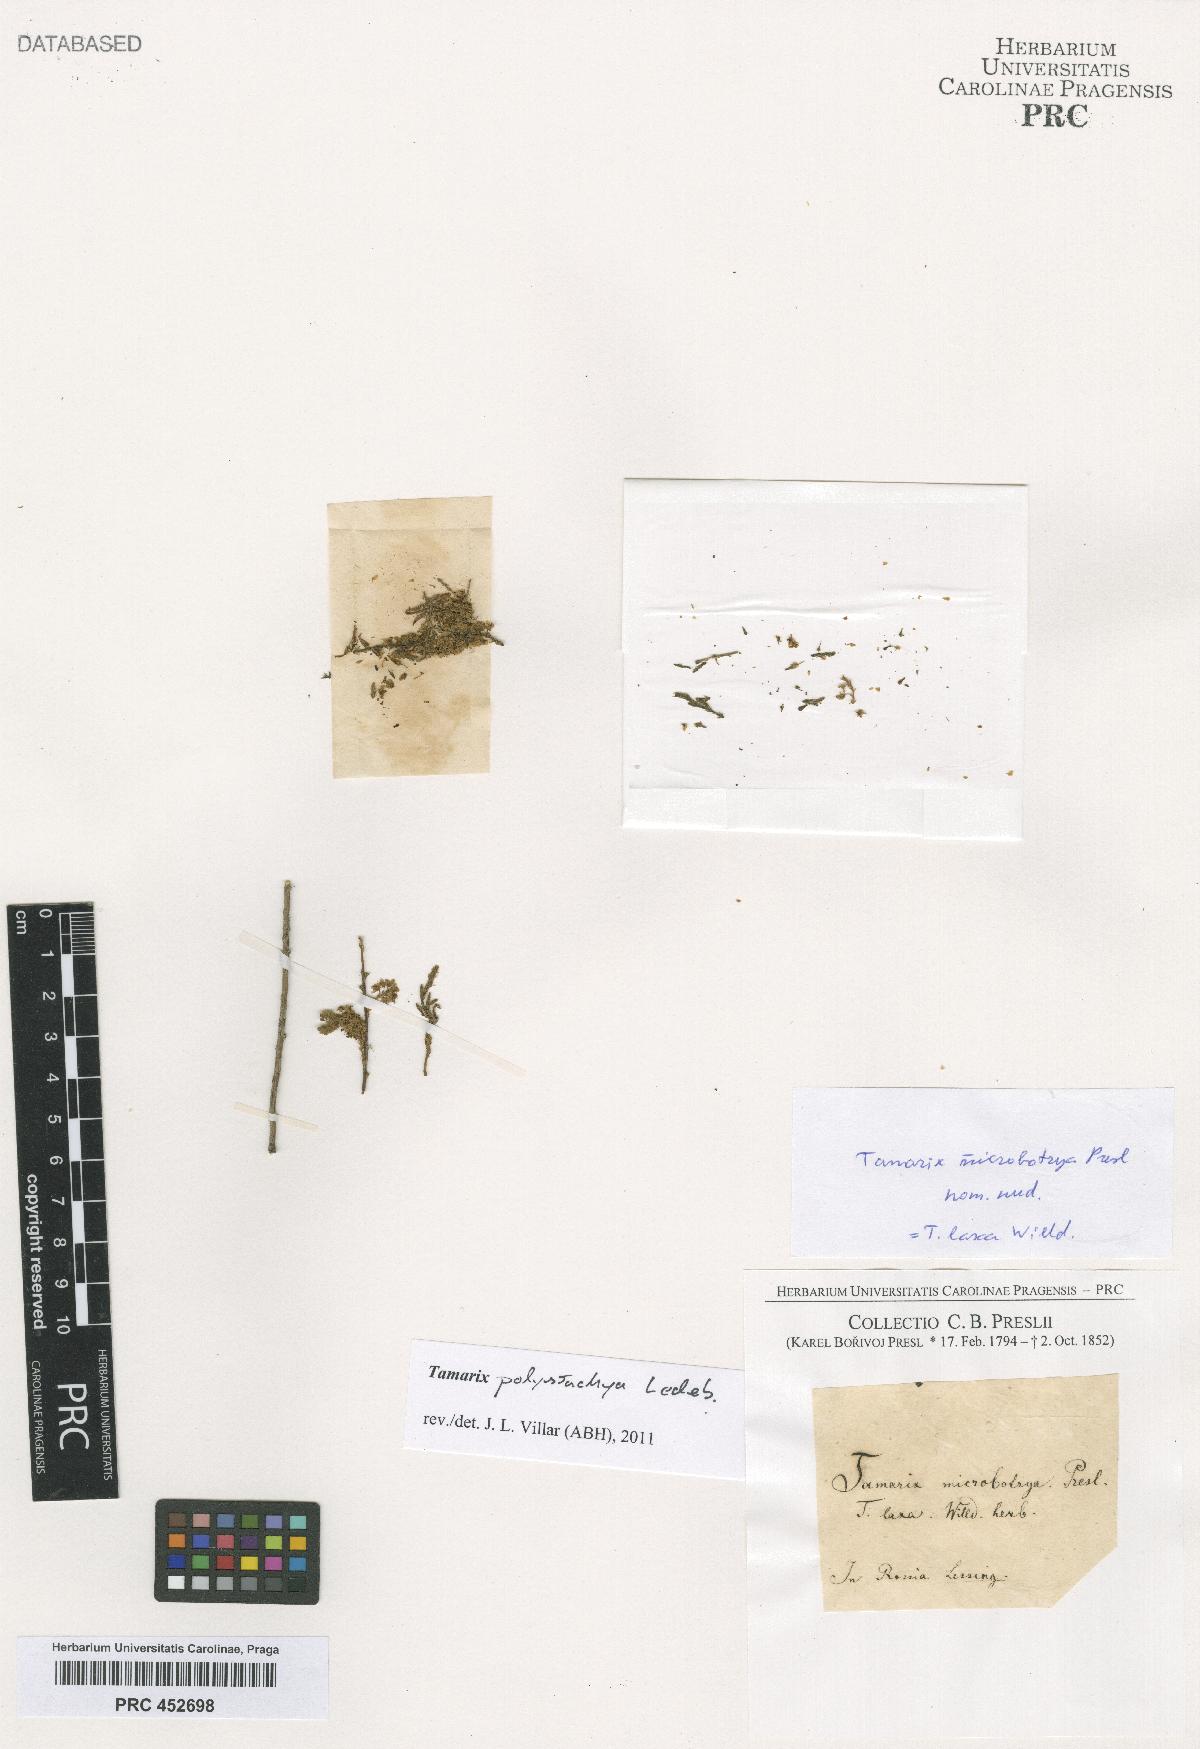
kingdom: Plantae
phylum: Tracheophyta
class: Magnoliopsida
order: Caryophyllales
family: Tamaricaceae
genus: Tamarix
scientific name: Tamarix
